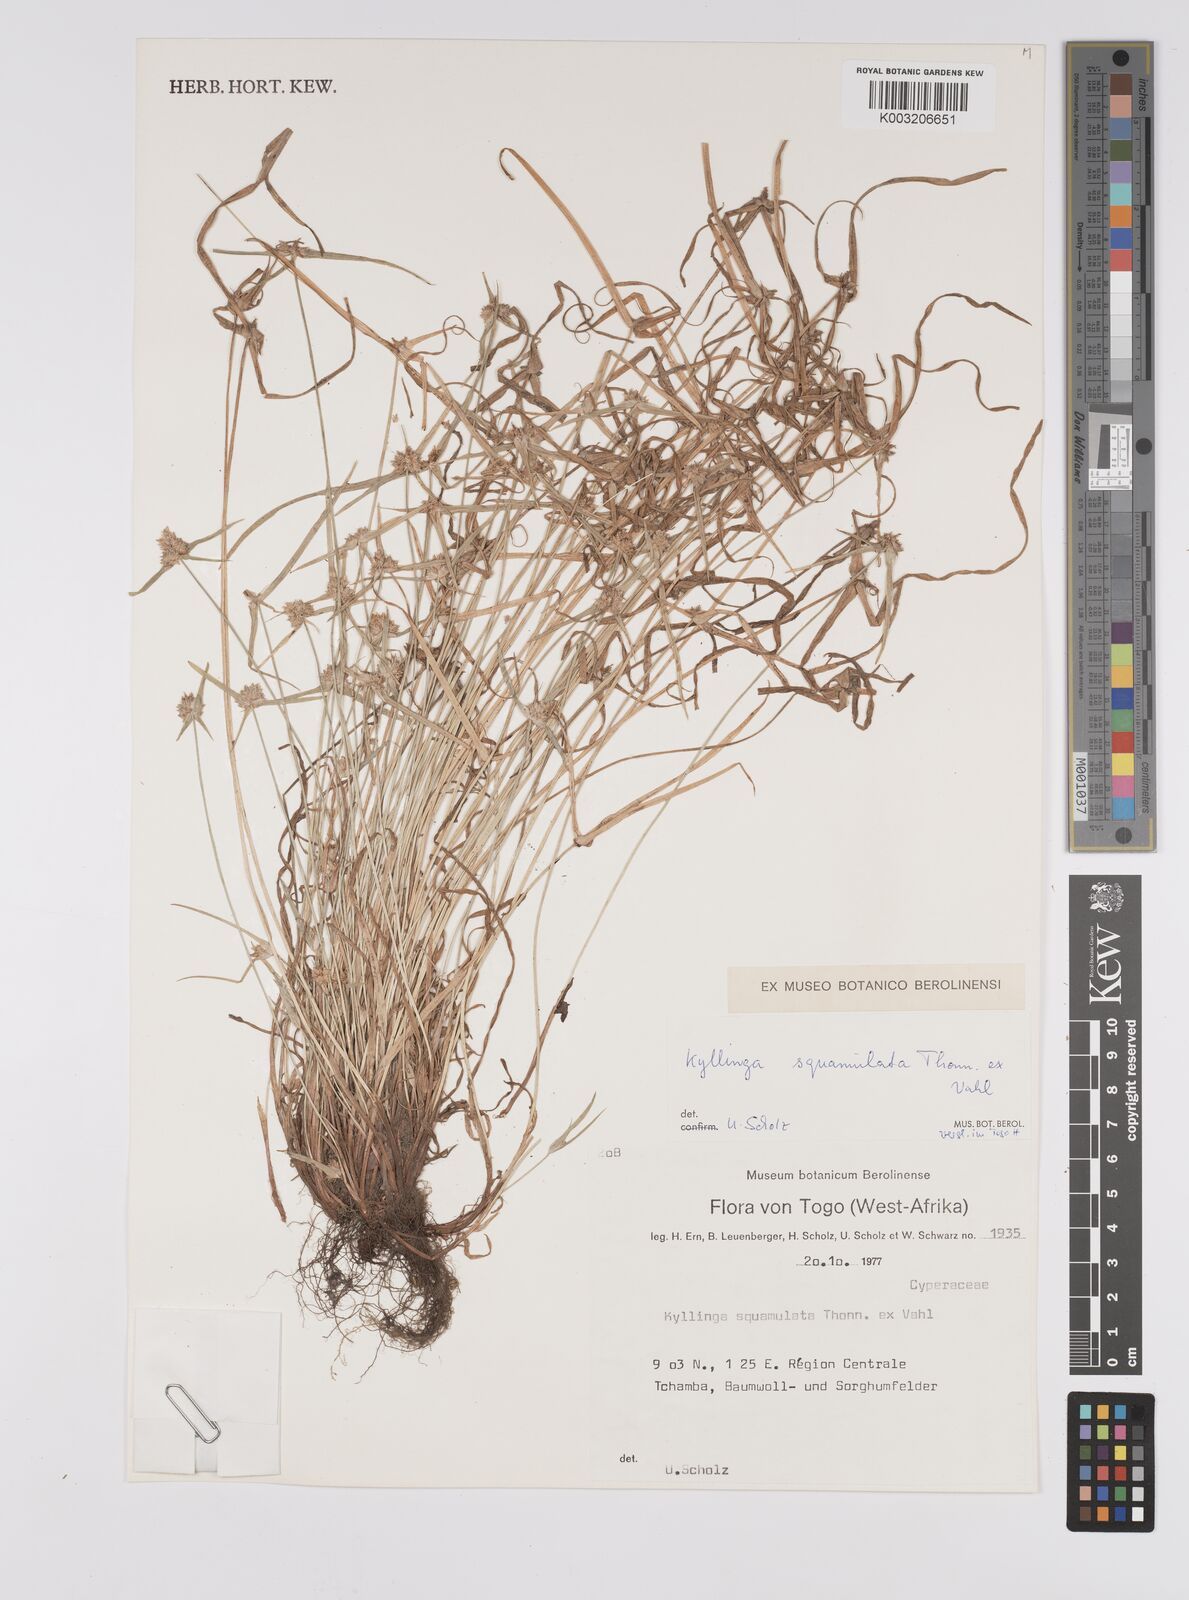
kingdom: Plantae
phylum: Tracheophyta
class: Liliopsida
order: Poales
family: Cyperaceae
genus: Cyperus
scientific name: Cyperus distans
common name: Slender cyperus
